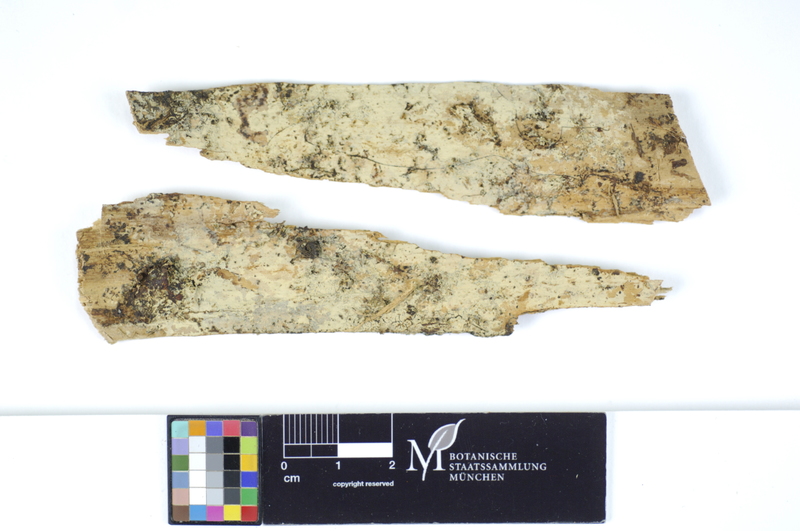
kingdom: Plantae
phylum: Tracheophyta
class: Pinopsida
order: Pinales
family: Pinaceae
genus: Picea
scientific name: Picea
